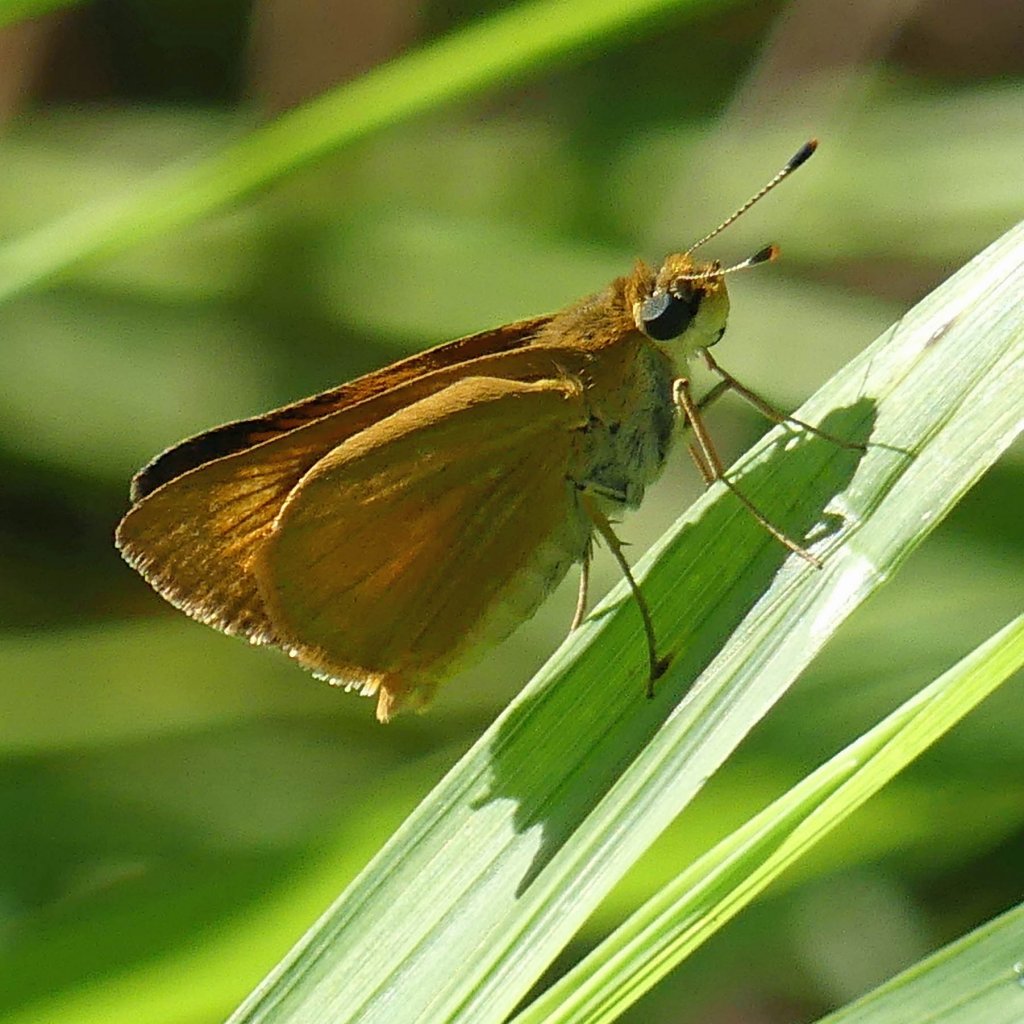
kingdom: Animalia
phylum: Arthropoda
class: Insecta
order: Lepidoptera
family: Hesperiidae
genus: Atrytone
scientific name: Atrytone delaware
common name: Delaware Skipper
